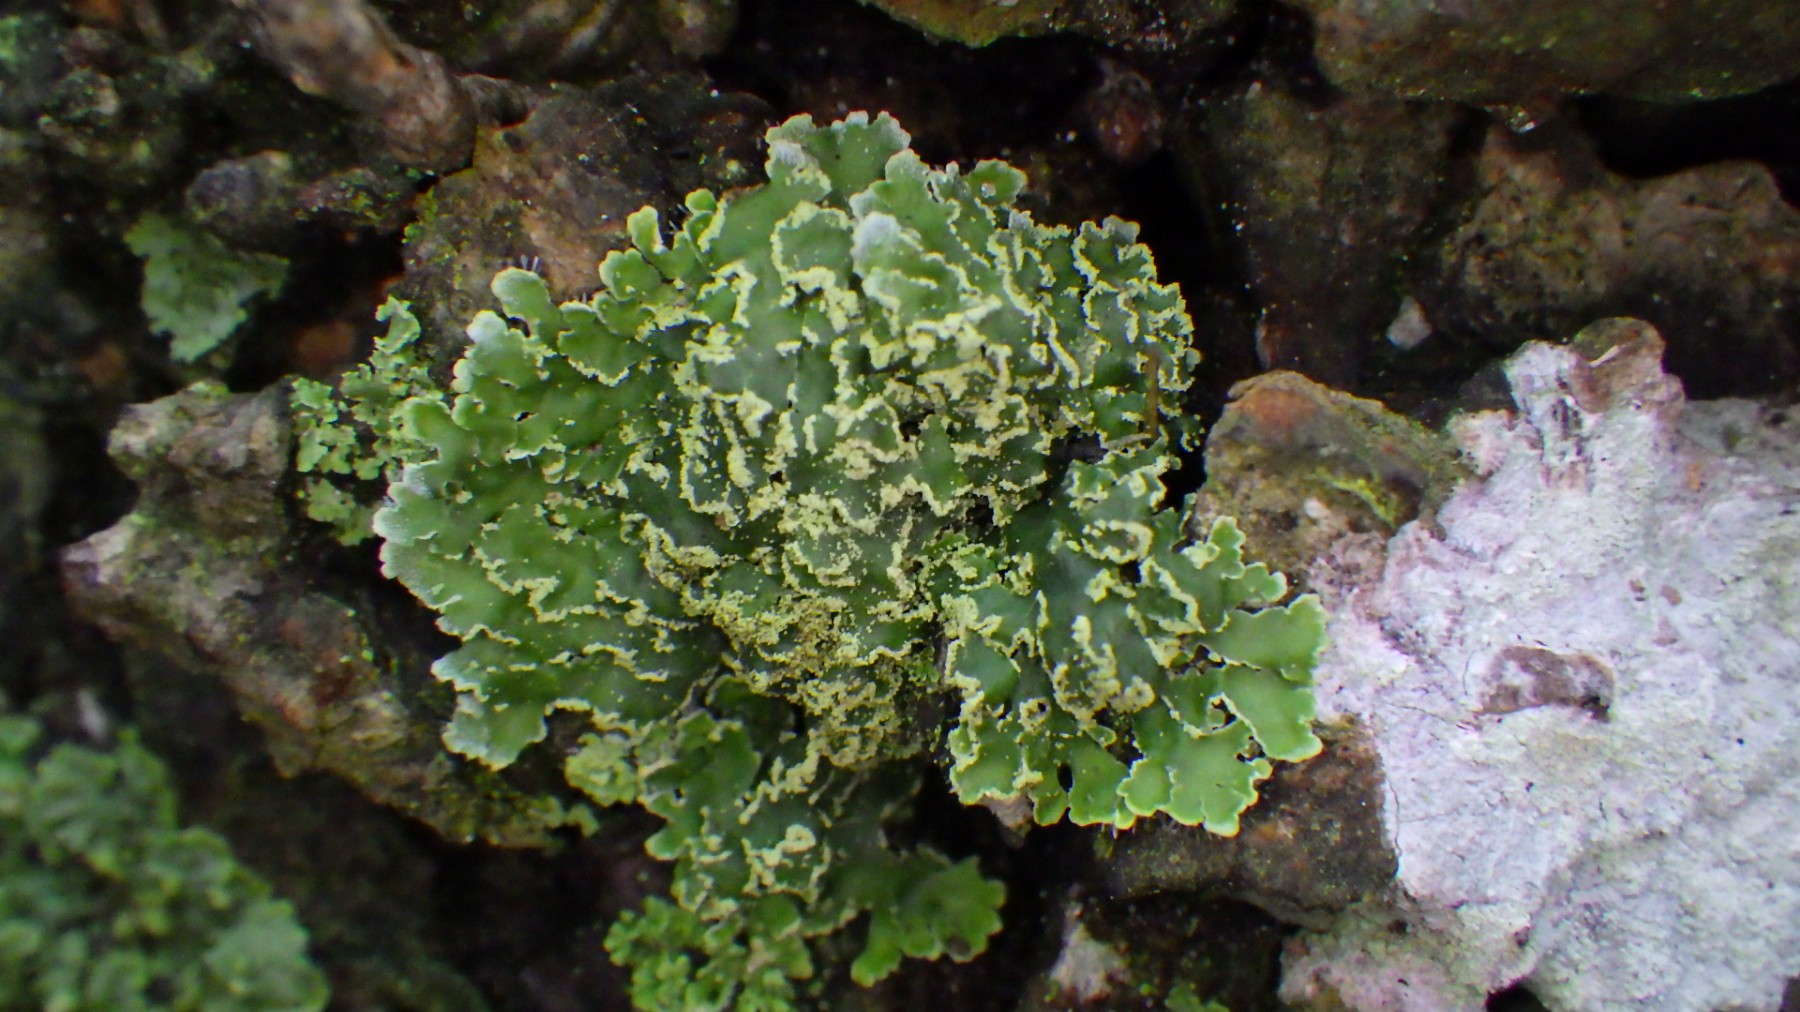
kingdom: Fungi
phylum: Ascomycota
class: Lecanoromycetes
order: Caliciales
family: Physciaceae
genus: Physconia
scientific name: Physconia enteroxantha
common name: grynet dugrosetlav
